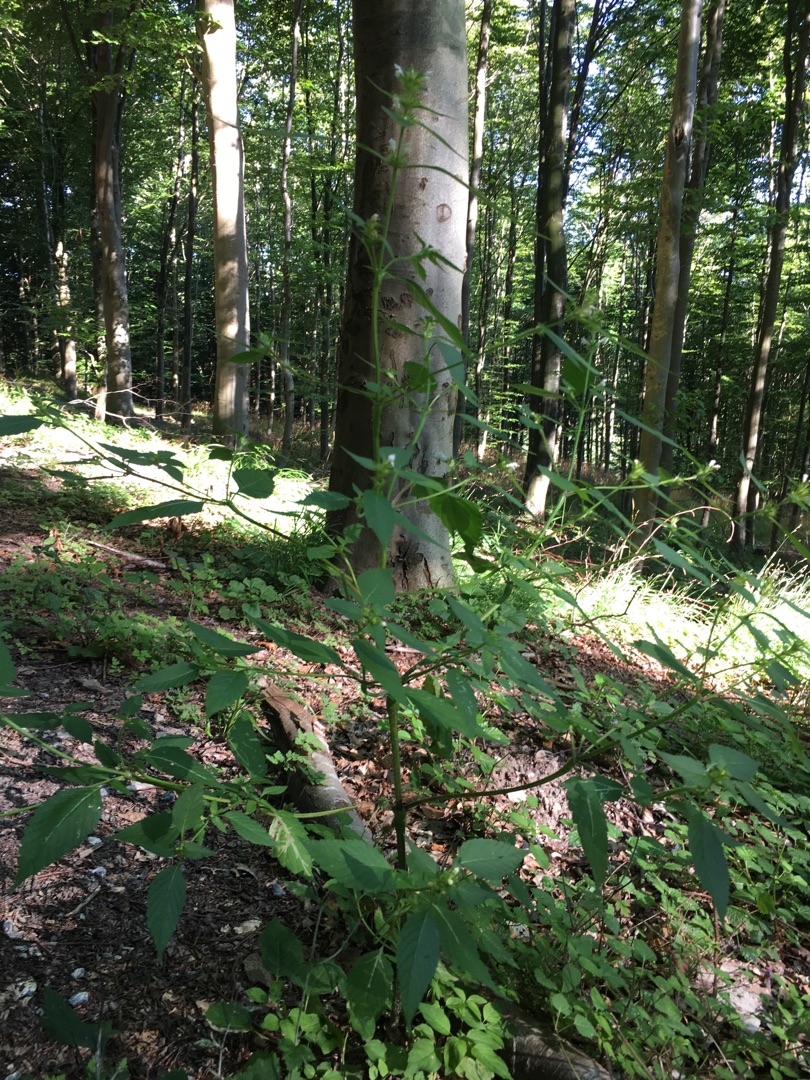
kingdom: Plantae
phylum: Tracheophyta
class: Magnoliopsida
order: Lamiales
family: Lamiaceae
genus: Galeopsis
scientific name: Galeopsis bifida
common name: Skov-hanekro
